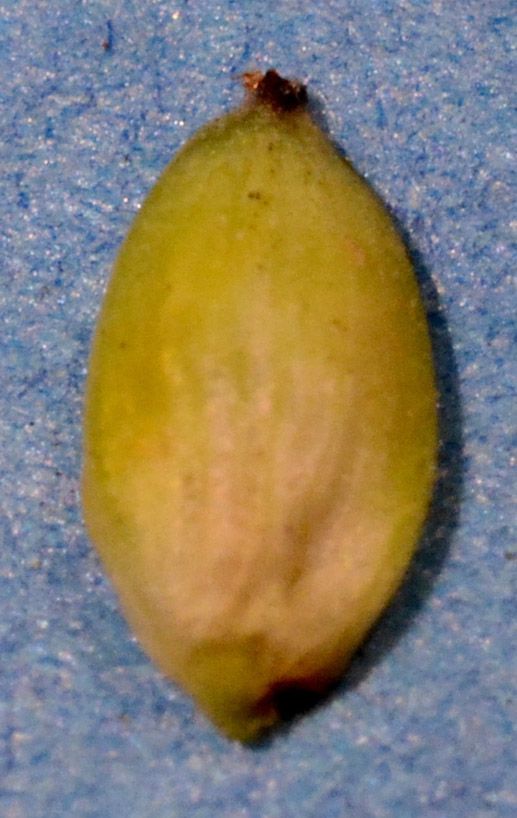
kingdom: Plantae
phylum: Tracheophyta
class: Liliopsida
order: Poales
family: Cyperaceae
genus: Carex
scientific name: Carex buxbaumii
